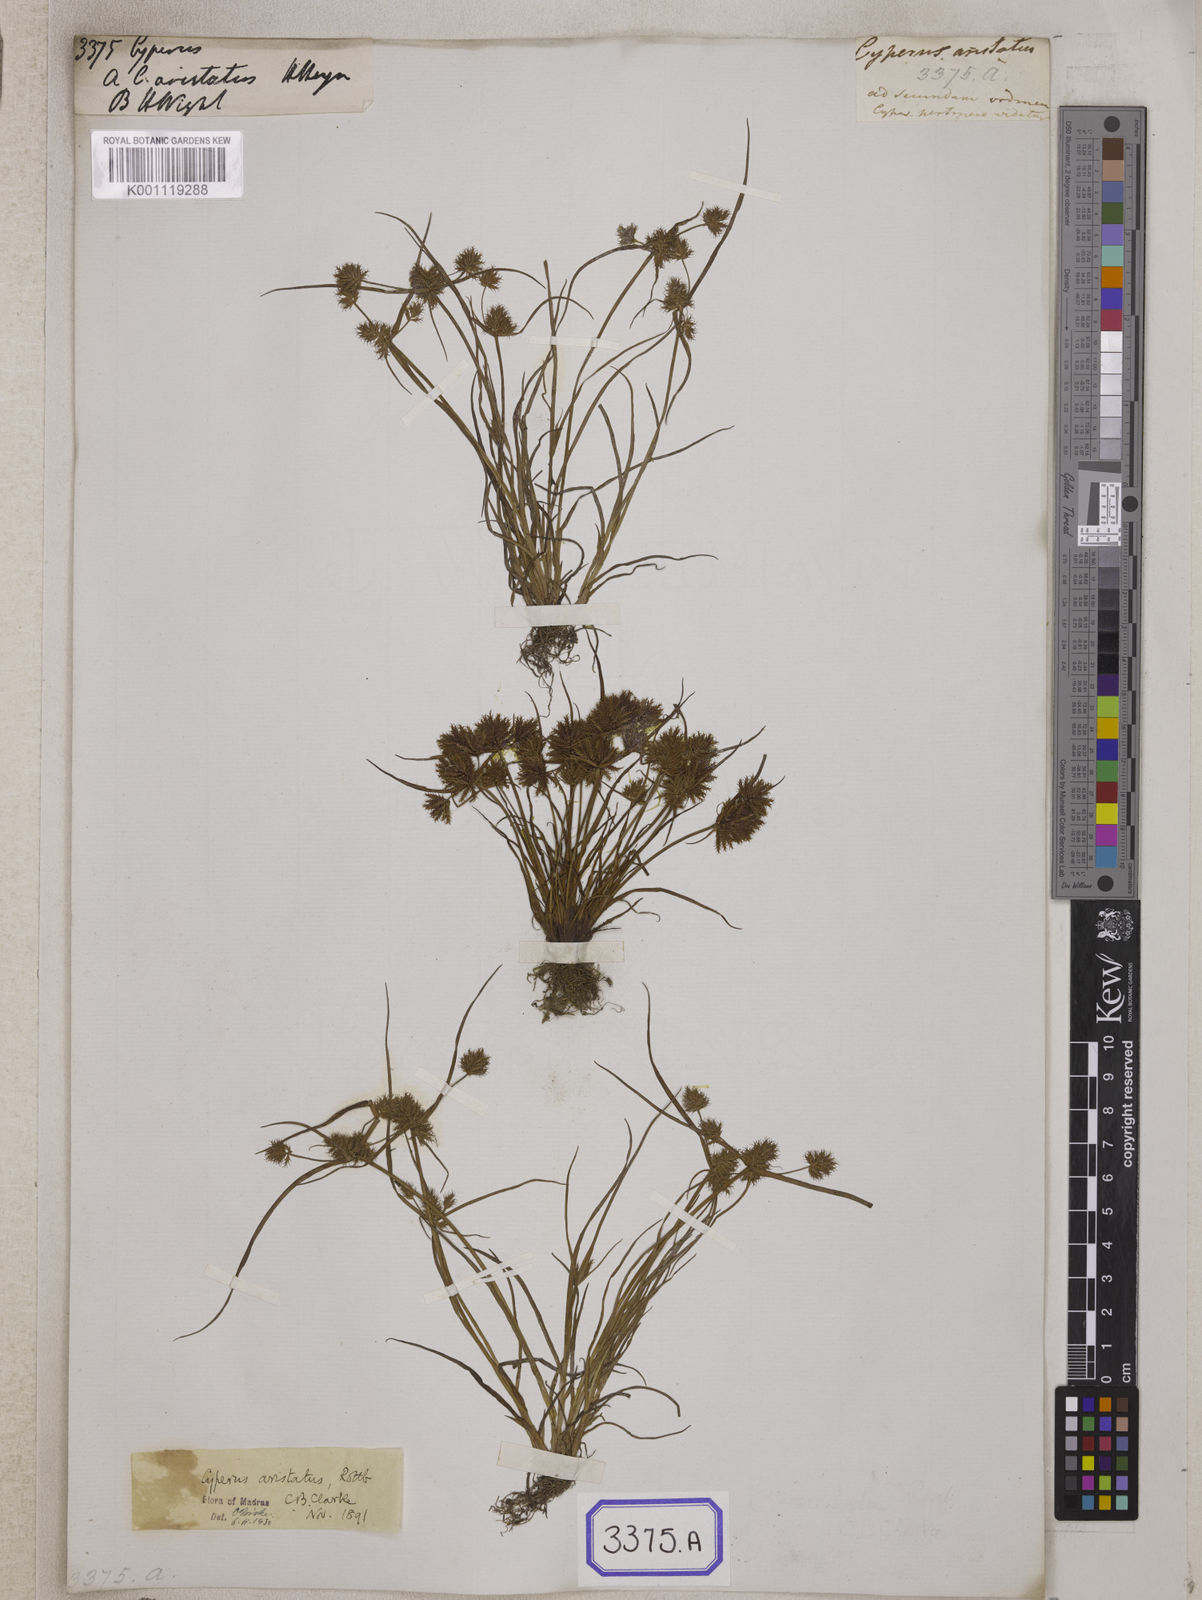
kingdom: Plantae
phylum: Tracheophyta
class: Liliopsida
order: Poales
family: Cyperaceae
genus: Cyperus
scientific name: Cyperus
